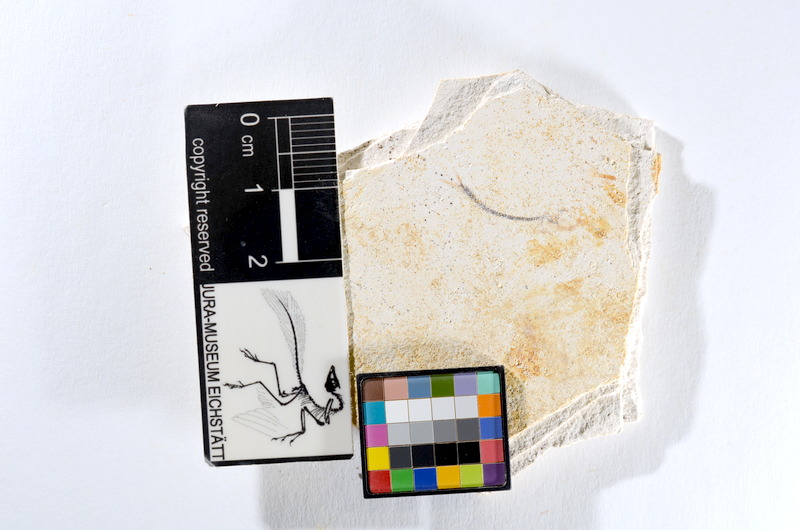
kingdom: Animalia
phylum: Chordata
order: Salmoniformes
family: Orthogonikleithridae
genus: Orthogonikleithrus
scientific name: Orthogonikleithrus hoelli
